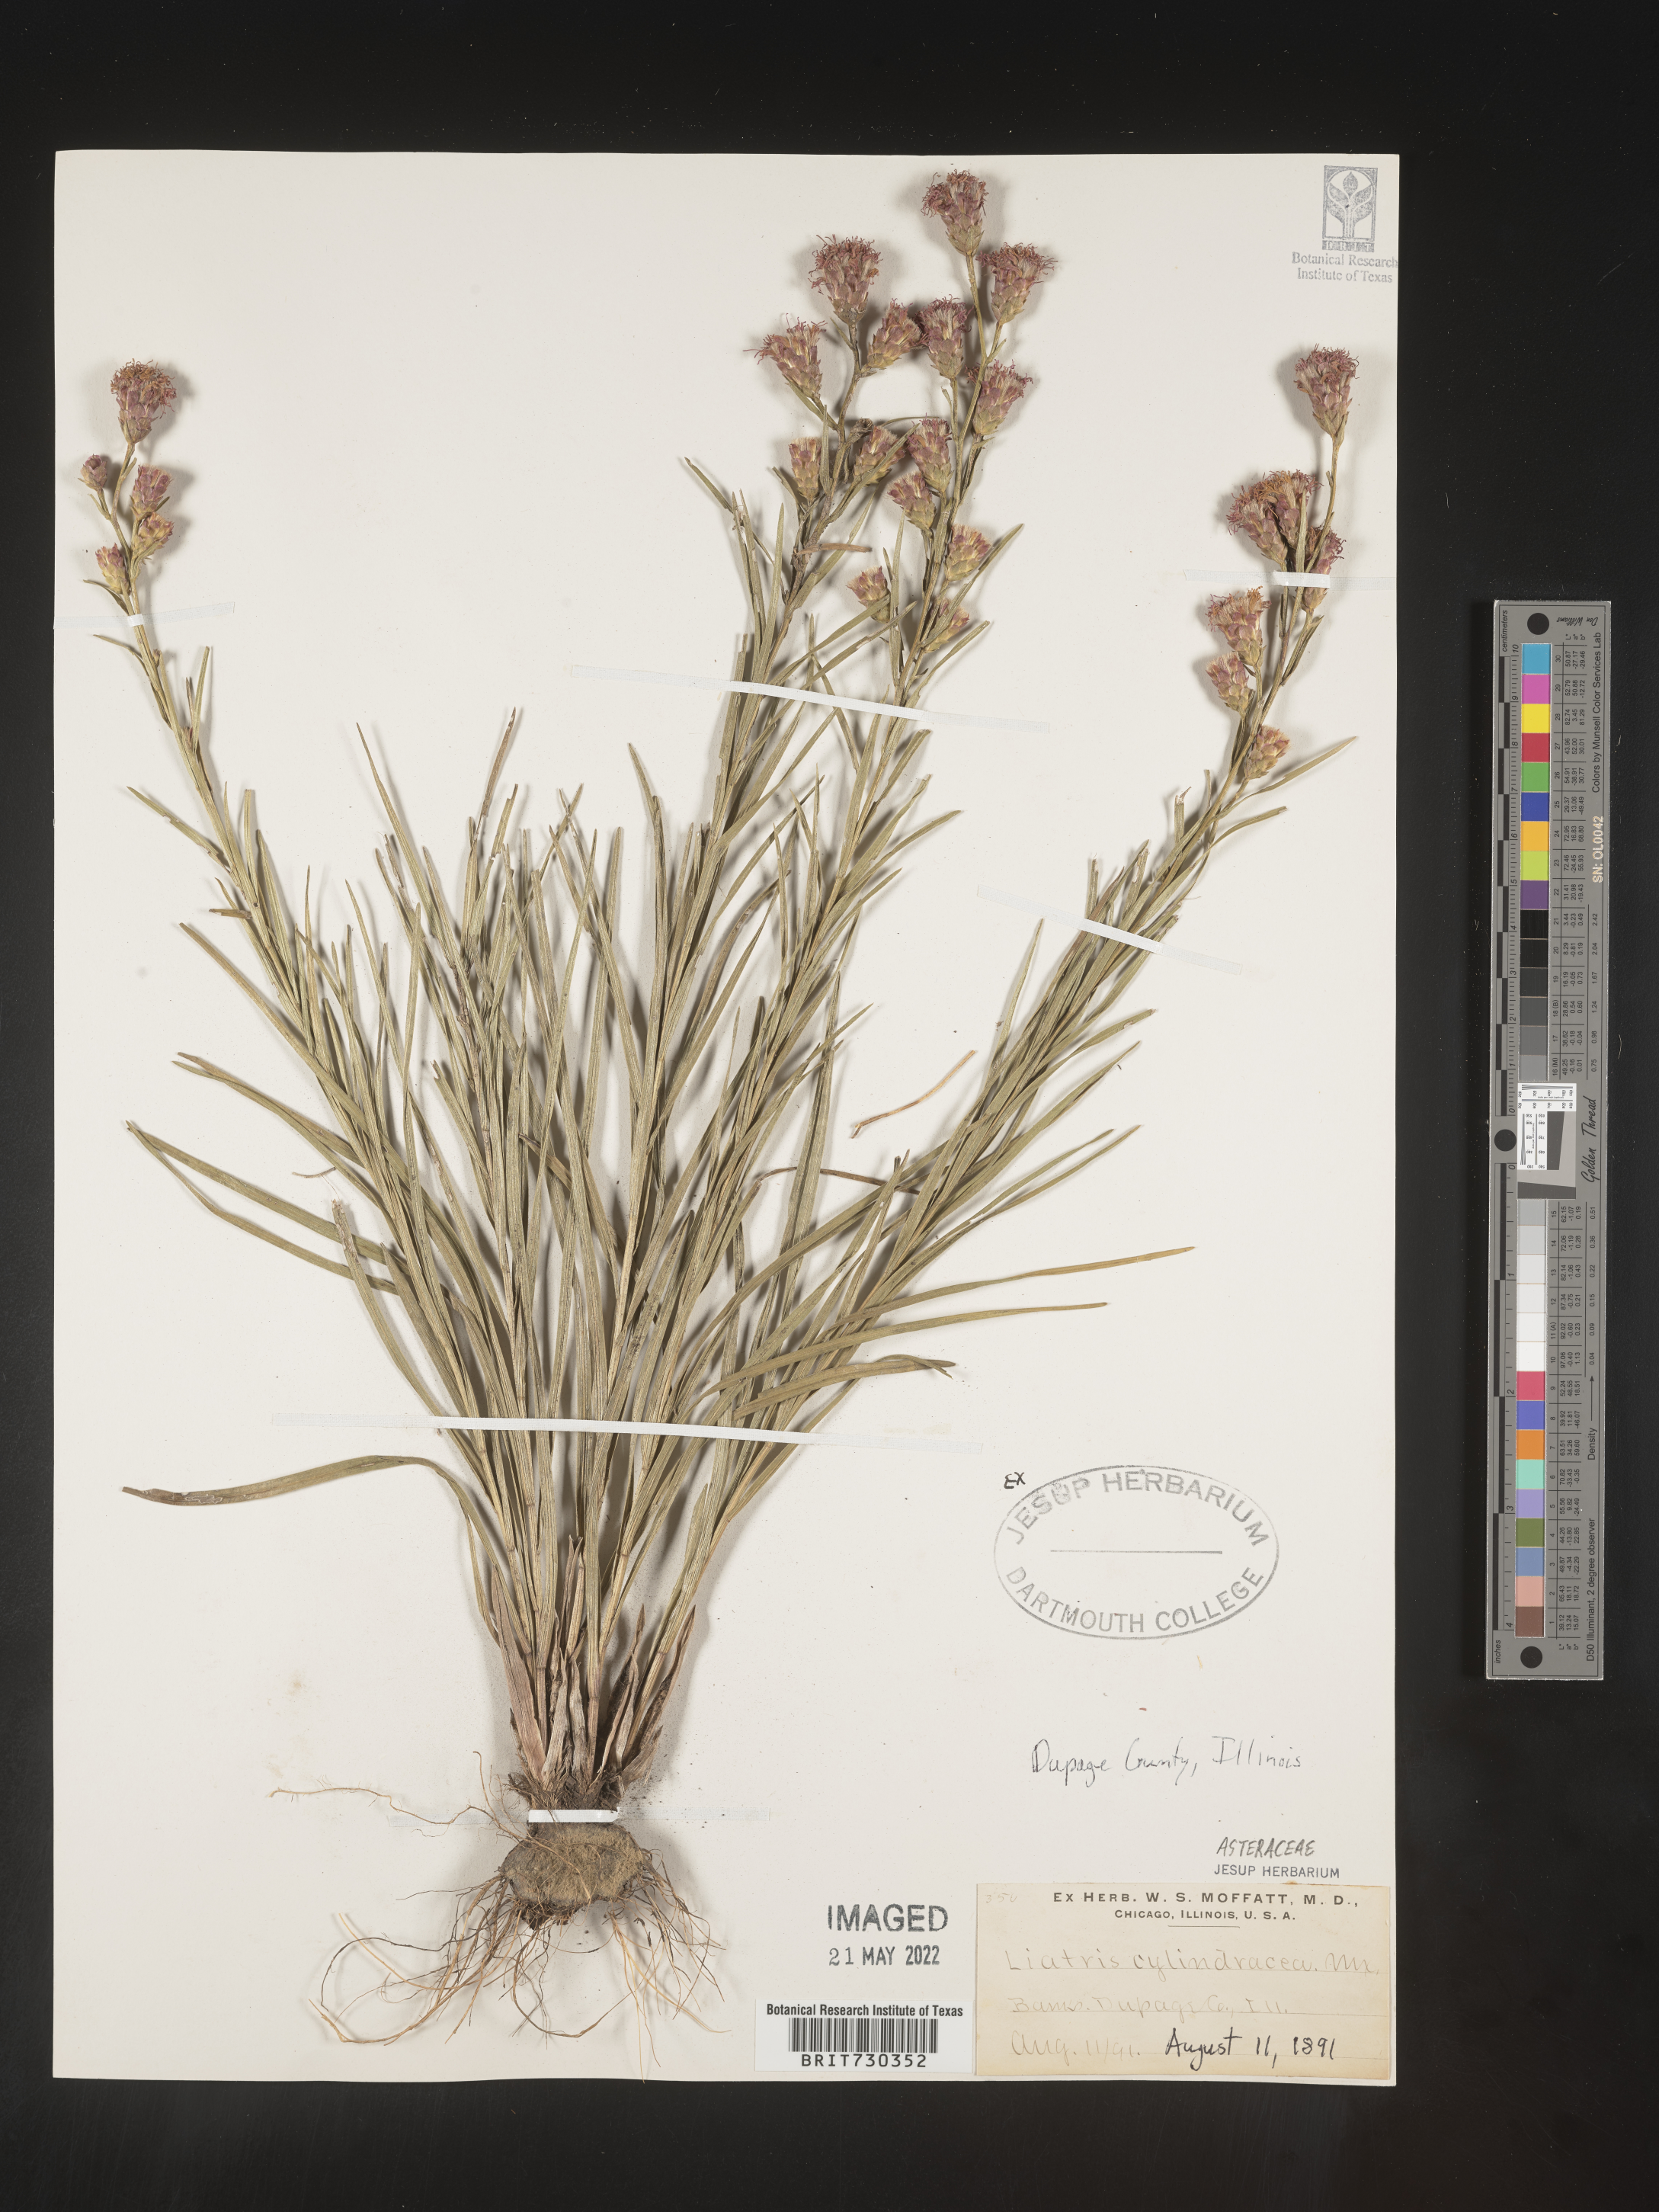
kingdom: Plantae
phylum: Tracheophyta
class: Magnoliopsida
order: Asterales
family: Asteraceae
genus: Liatris
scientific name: Liatris cylindracea
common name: Few-head blazingstar
